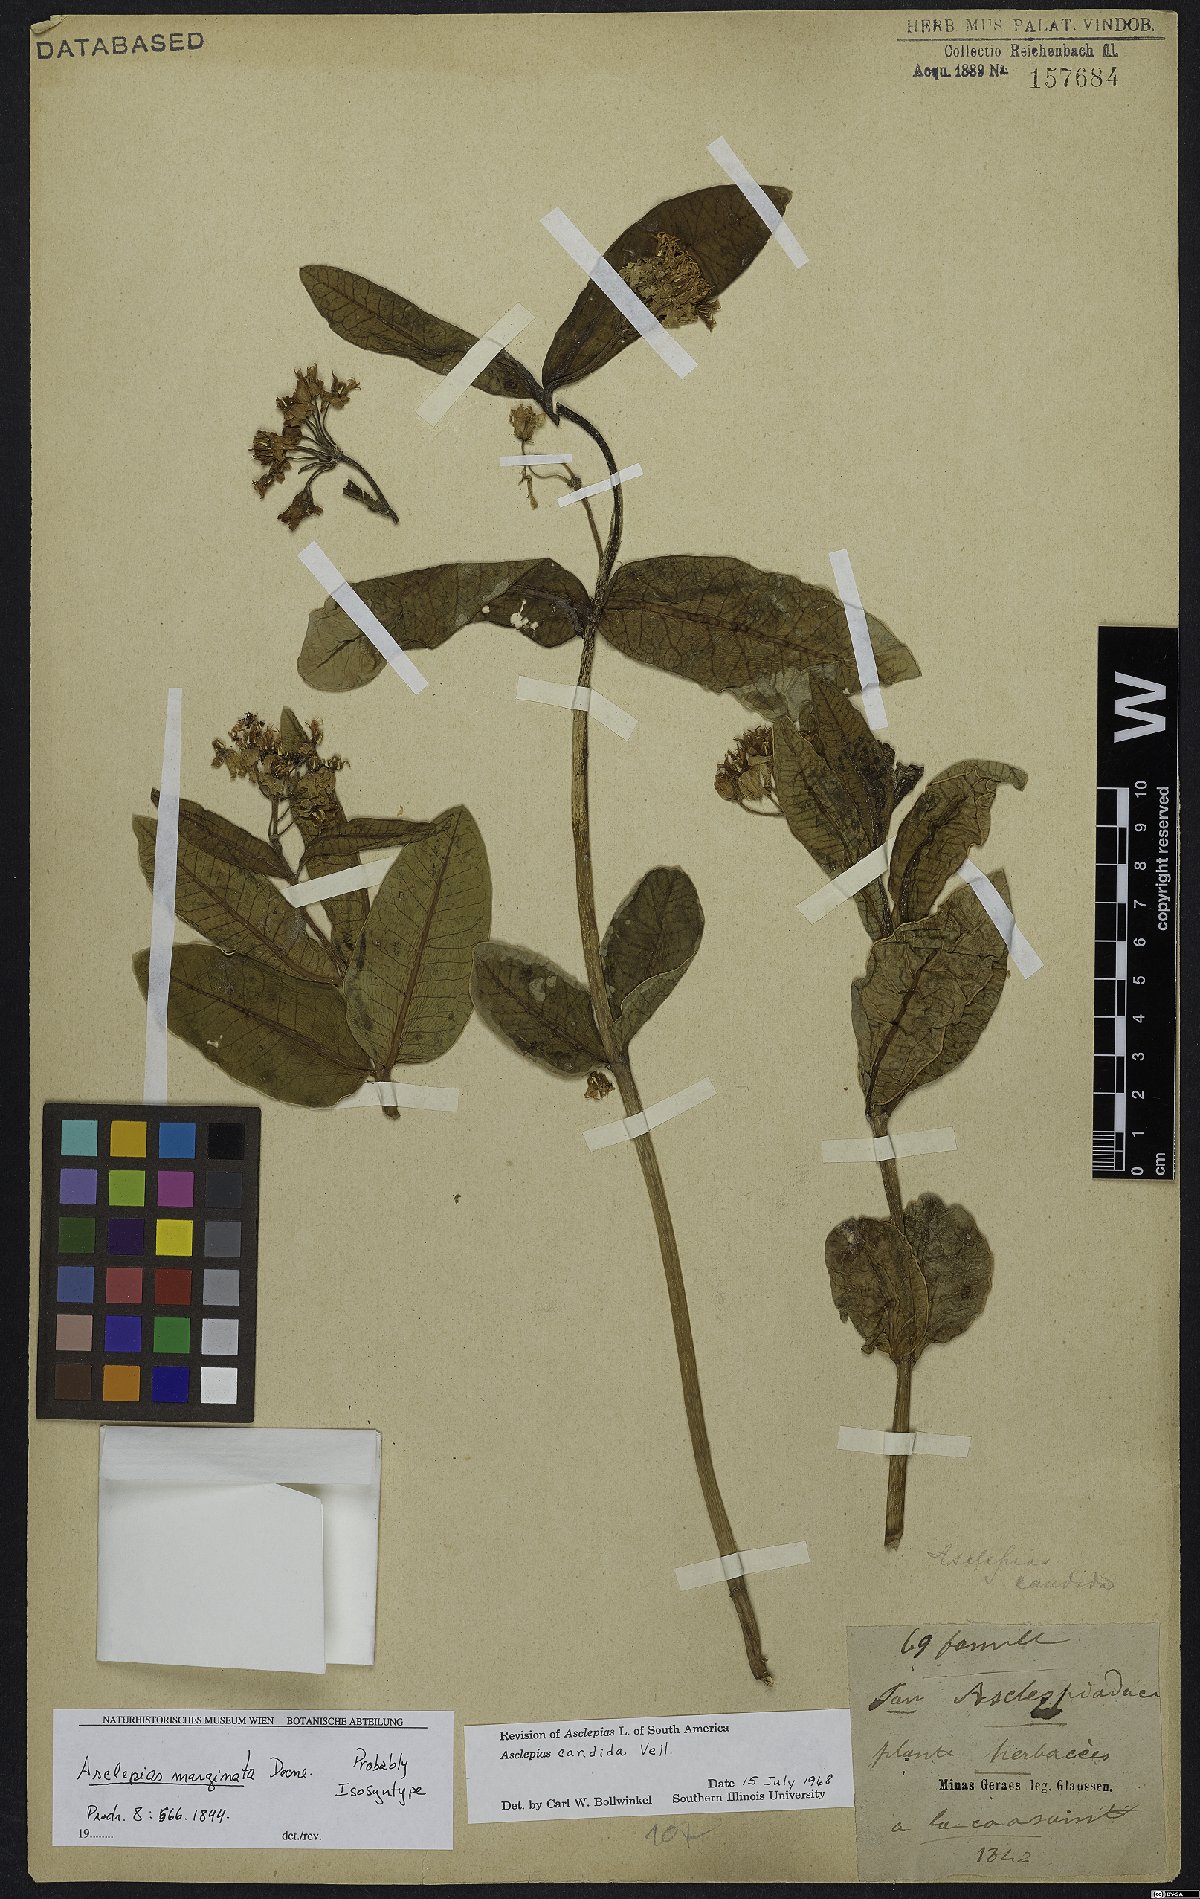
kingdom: Plantae
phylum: Tracheophyta
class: Magnoliopsida
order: Gentianales
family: Apocynaceae
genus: Asclepias
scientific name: Asclepias candida
